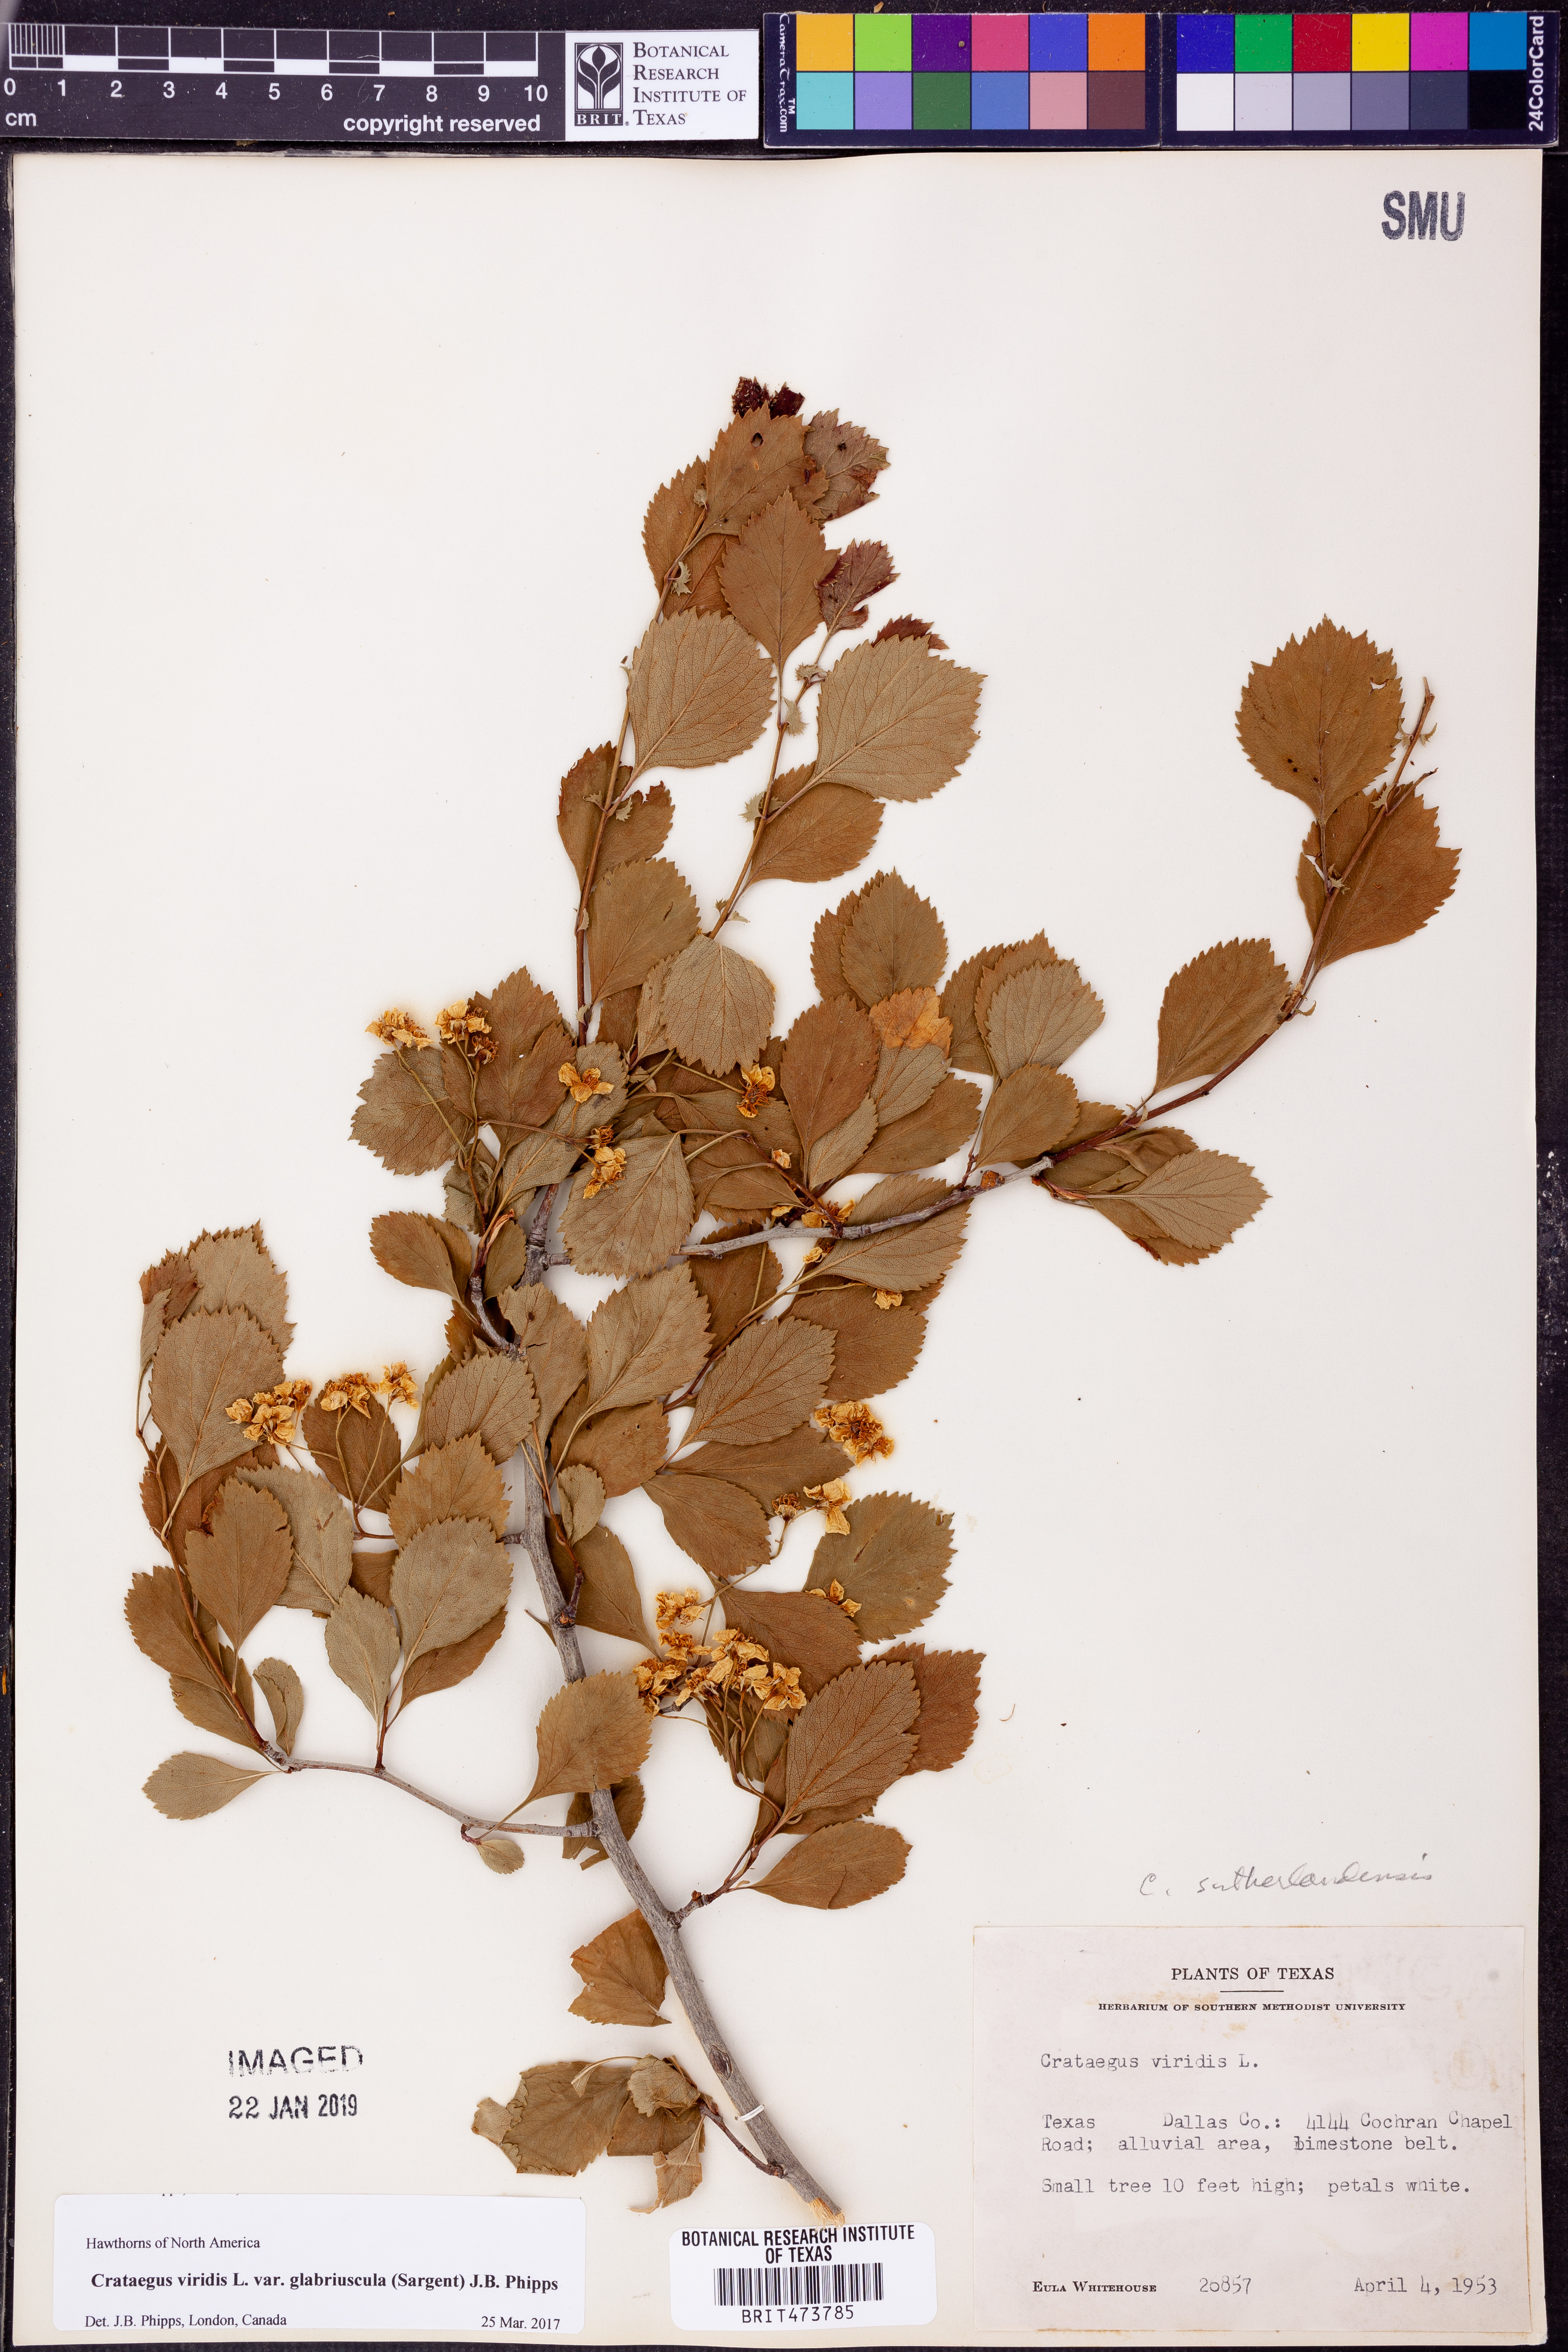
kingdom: Plantae
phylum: Tracheophyta
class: Magnoliopsida
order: Rosales
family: Rosaceae
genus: Crataegus
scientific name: Crataegus viridis
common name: Southernthorn
